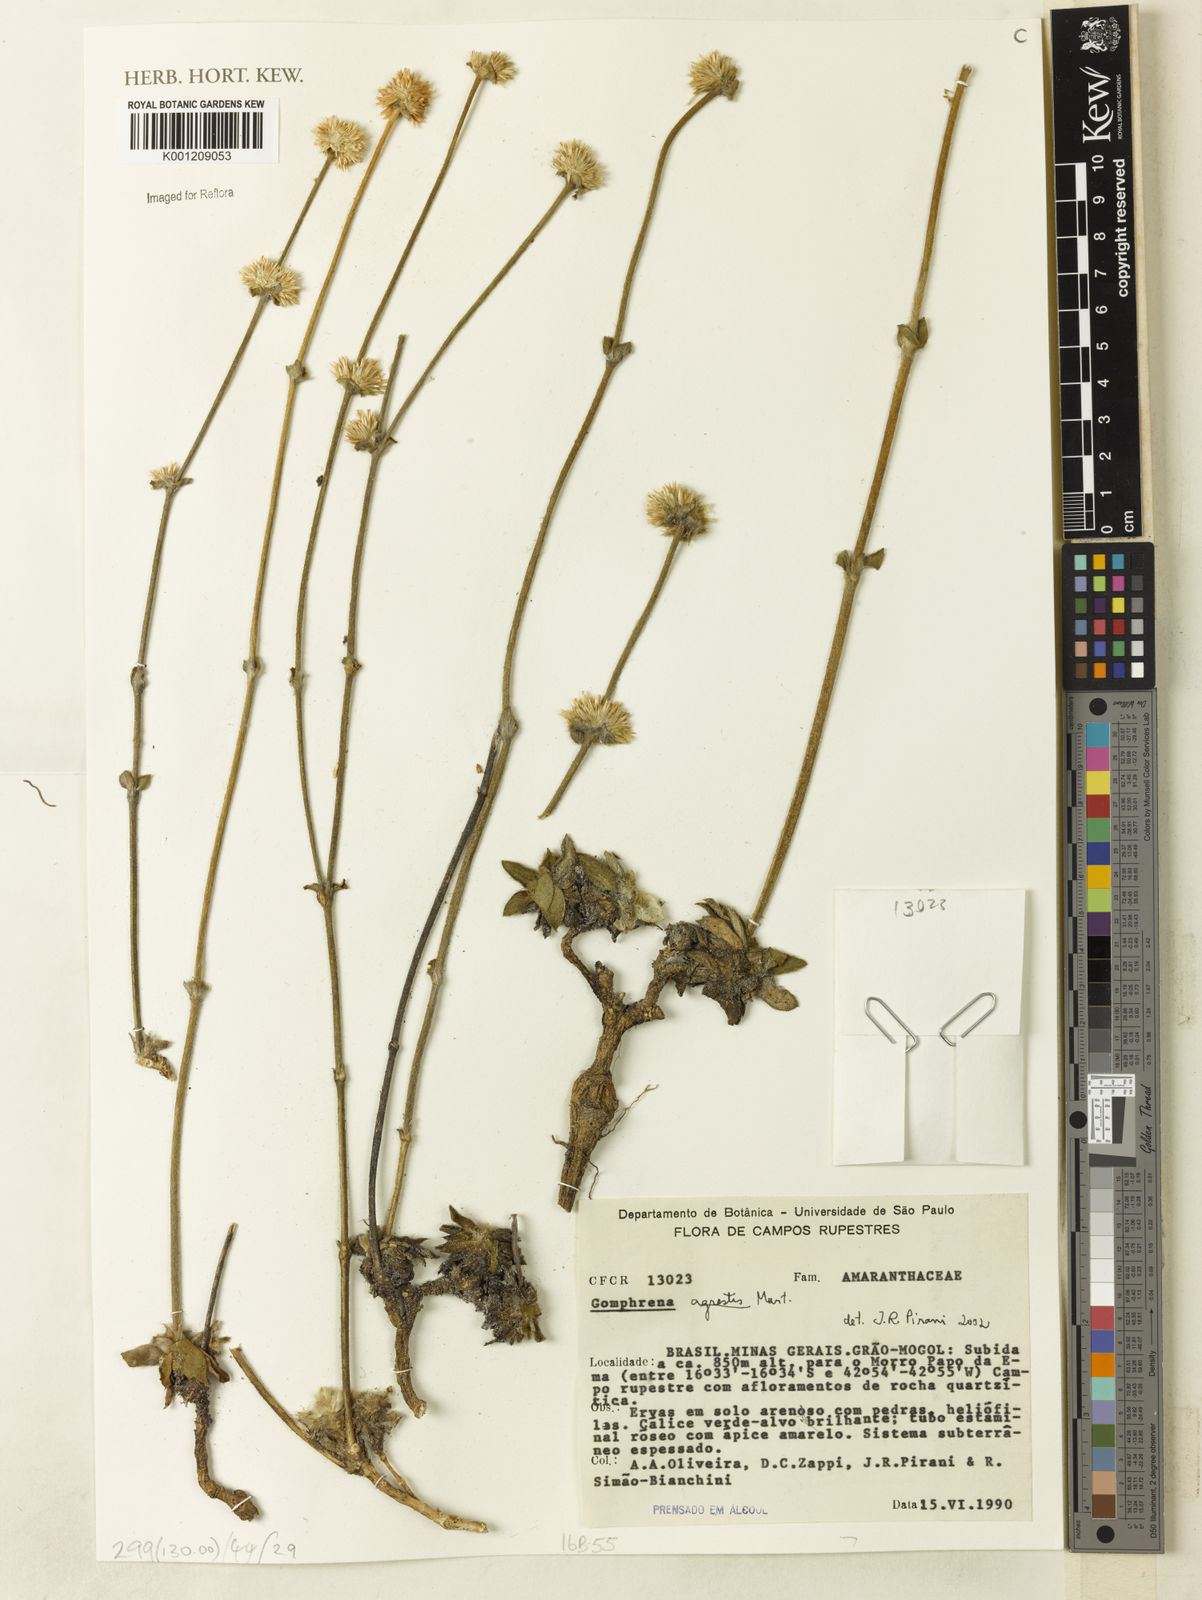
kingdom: Plantae
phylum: Tracheophyta
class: Magnoliopsida
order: Caryophyllales
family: Amaranthaceae
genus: Gomphrena
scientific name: Gomphrena agrestis
